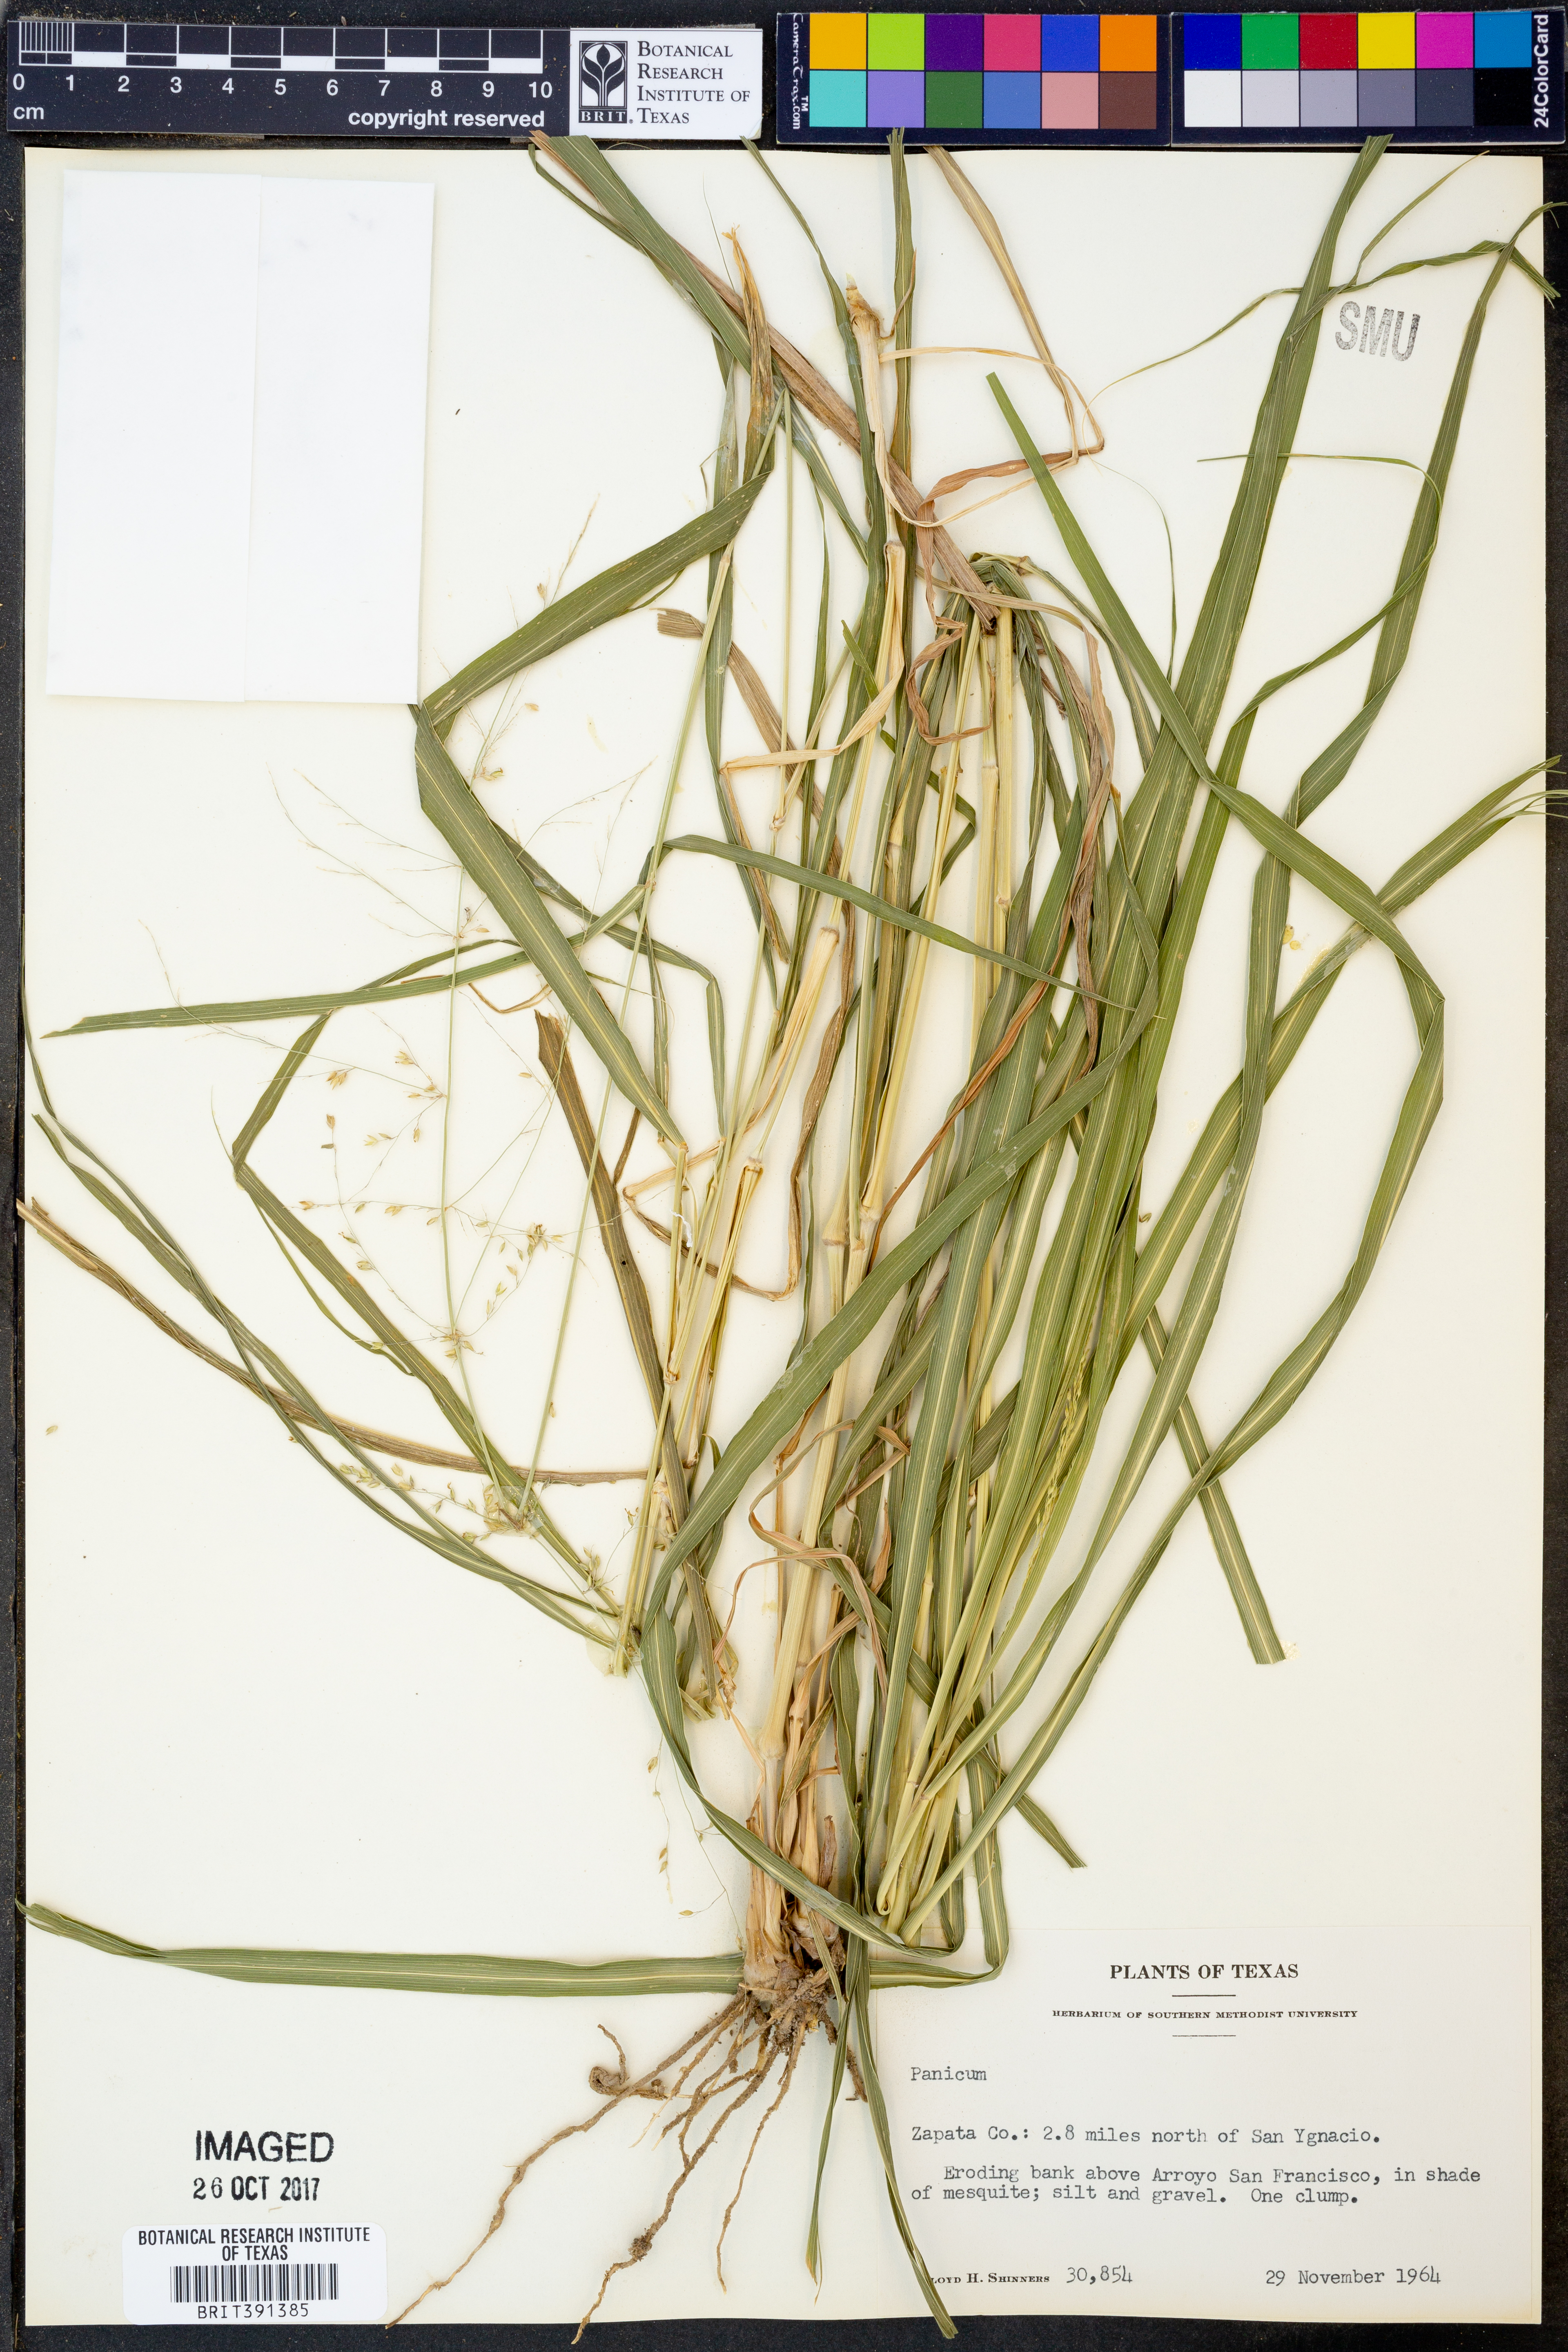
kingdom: Plantae
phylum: Tracheophyta
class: Liliopsida
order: Poales
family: Poaceae
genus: Panicum
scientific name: Panicum
